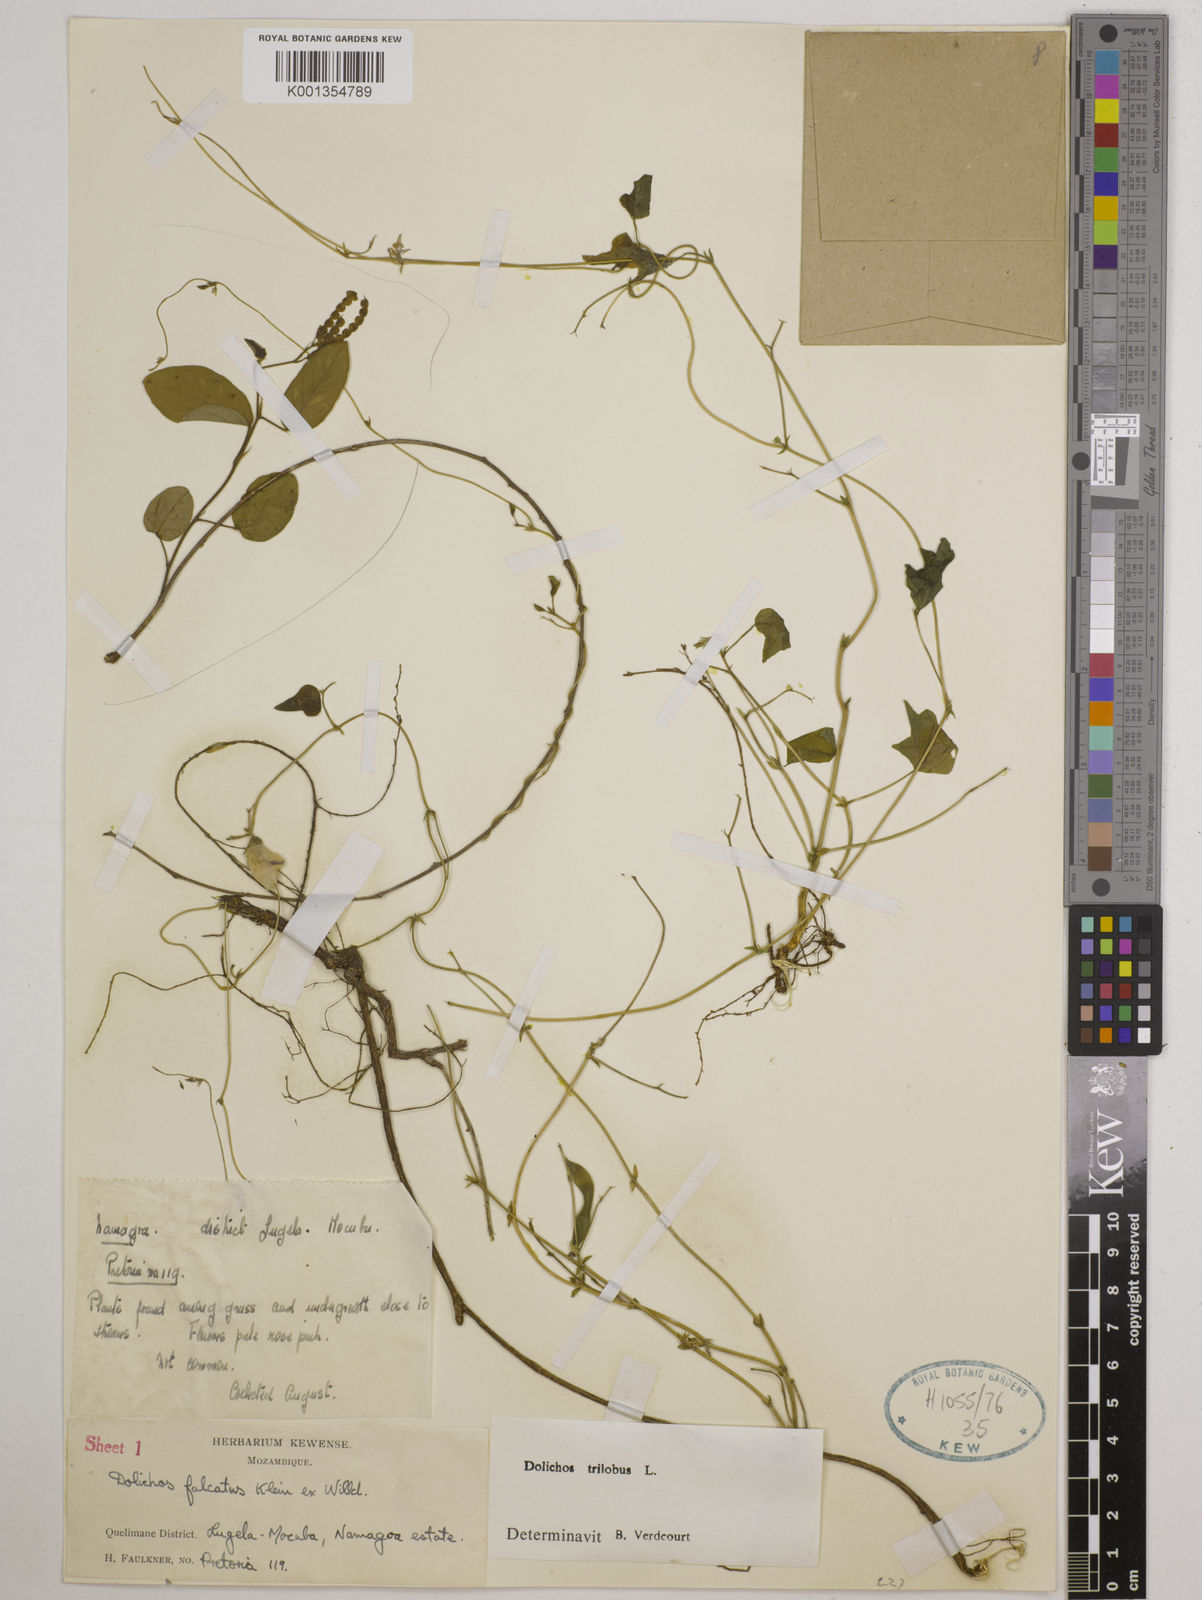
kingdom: Plantae
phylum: Tracheophyta
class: Magnoliopsida
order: Fabales
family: Fabaceae
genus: Dolichos
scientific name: Dolichos
